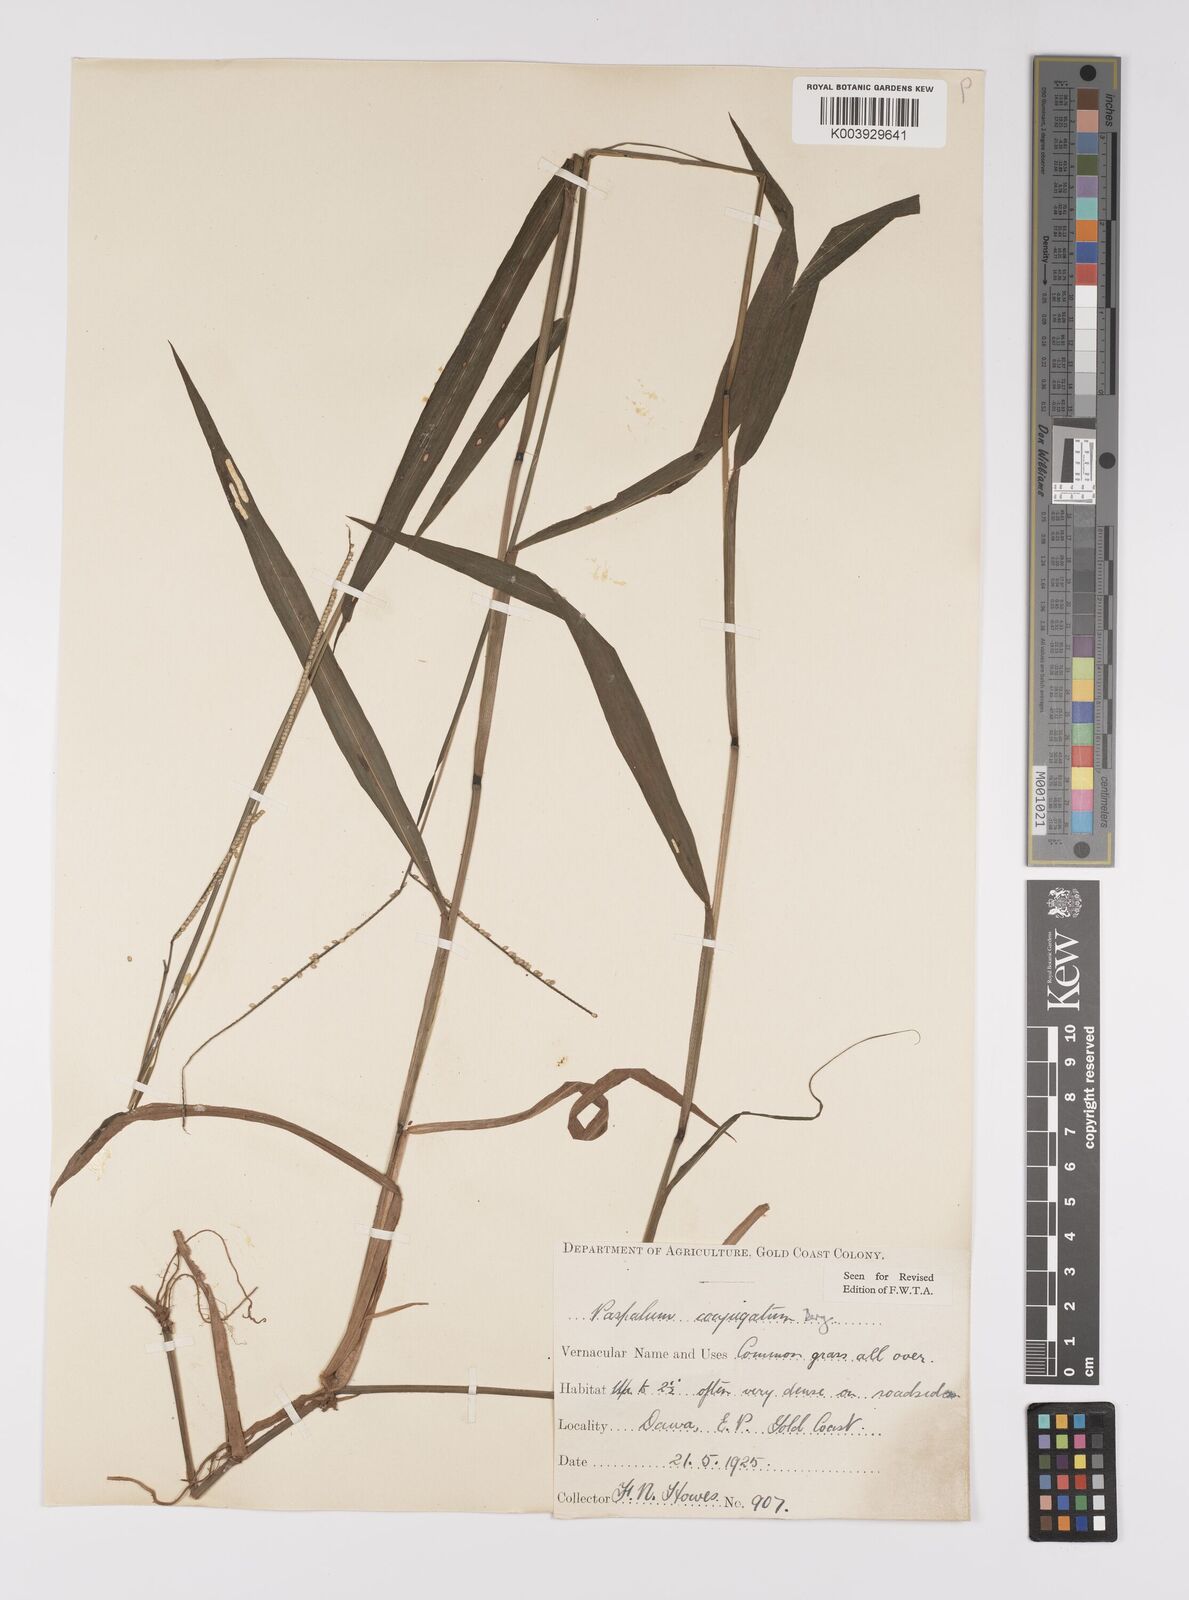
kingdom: Plantae
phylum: Tracheophyta
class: Liliopsida
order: Poales
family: Poaceae
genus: Paspalum
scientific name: Paspalum conjugatum
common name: Hilograss
